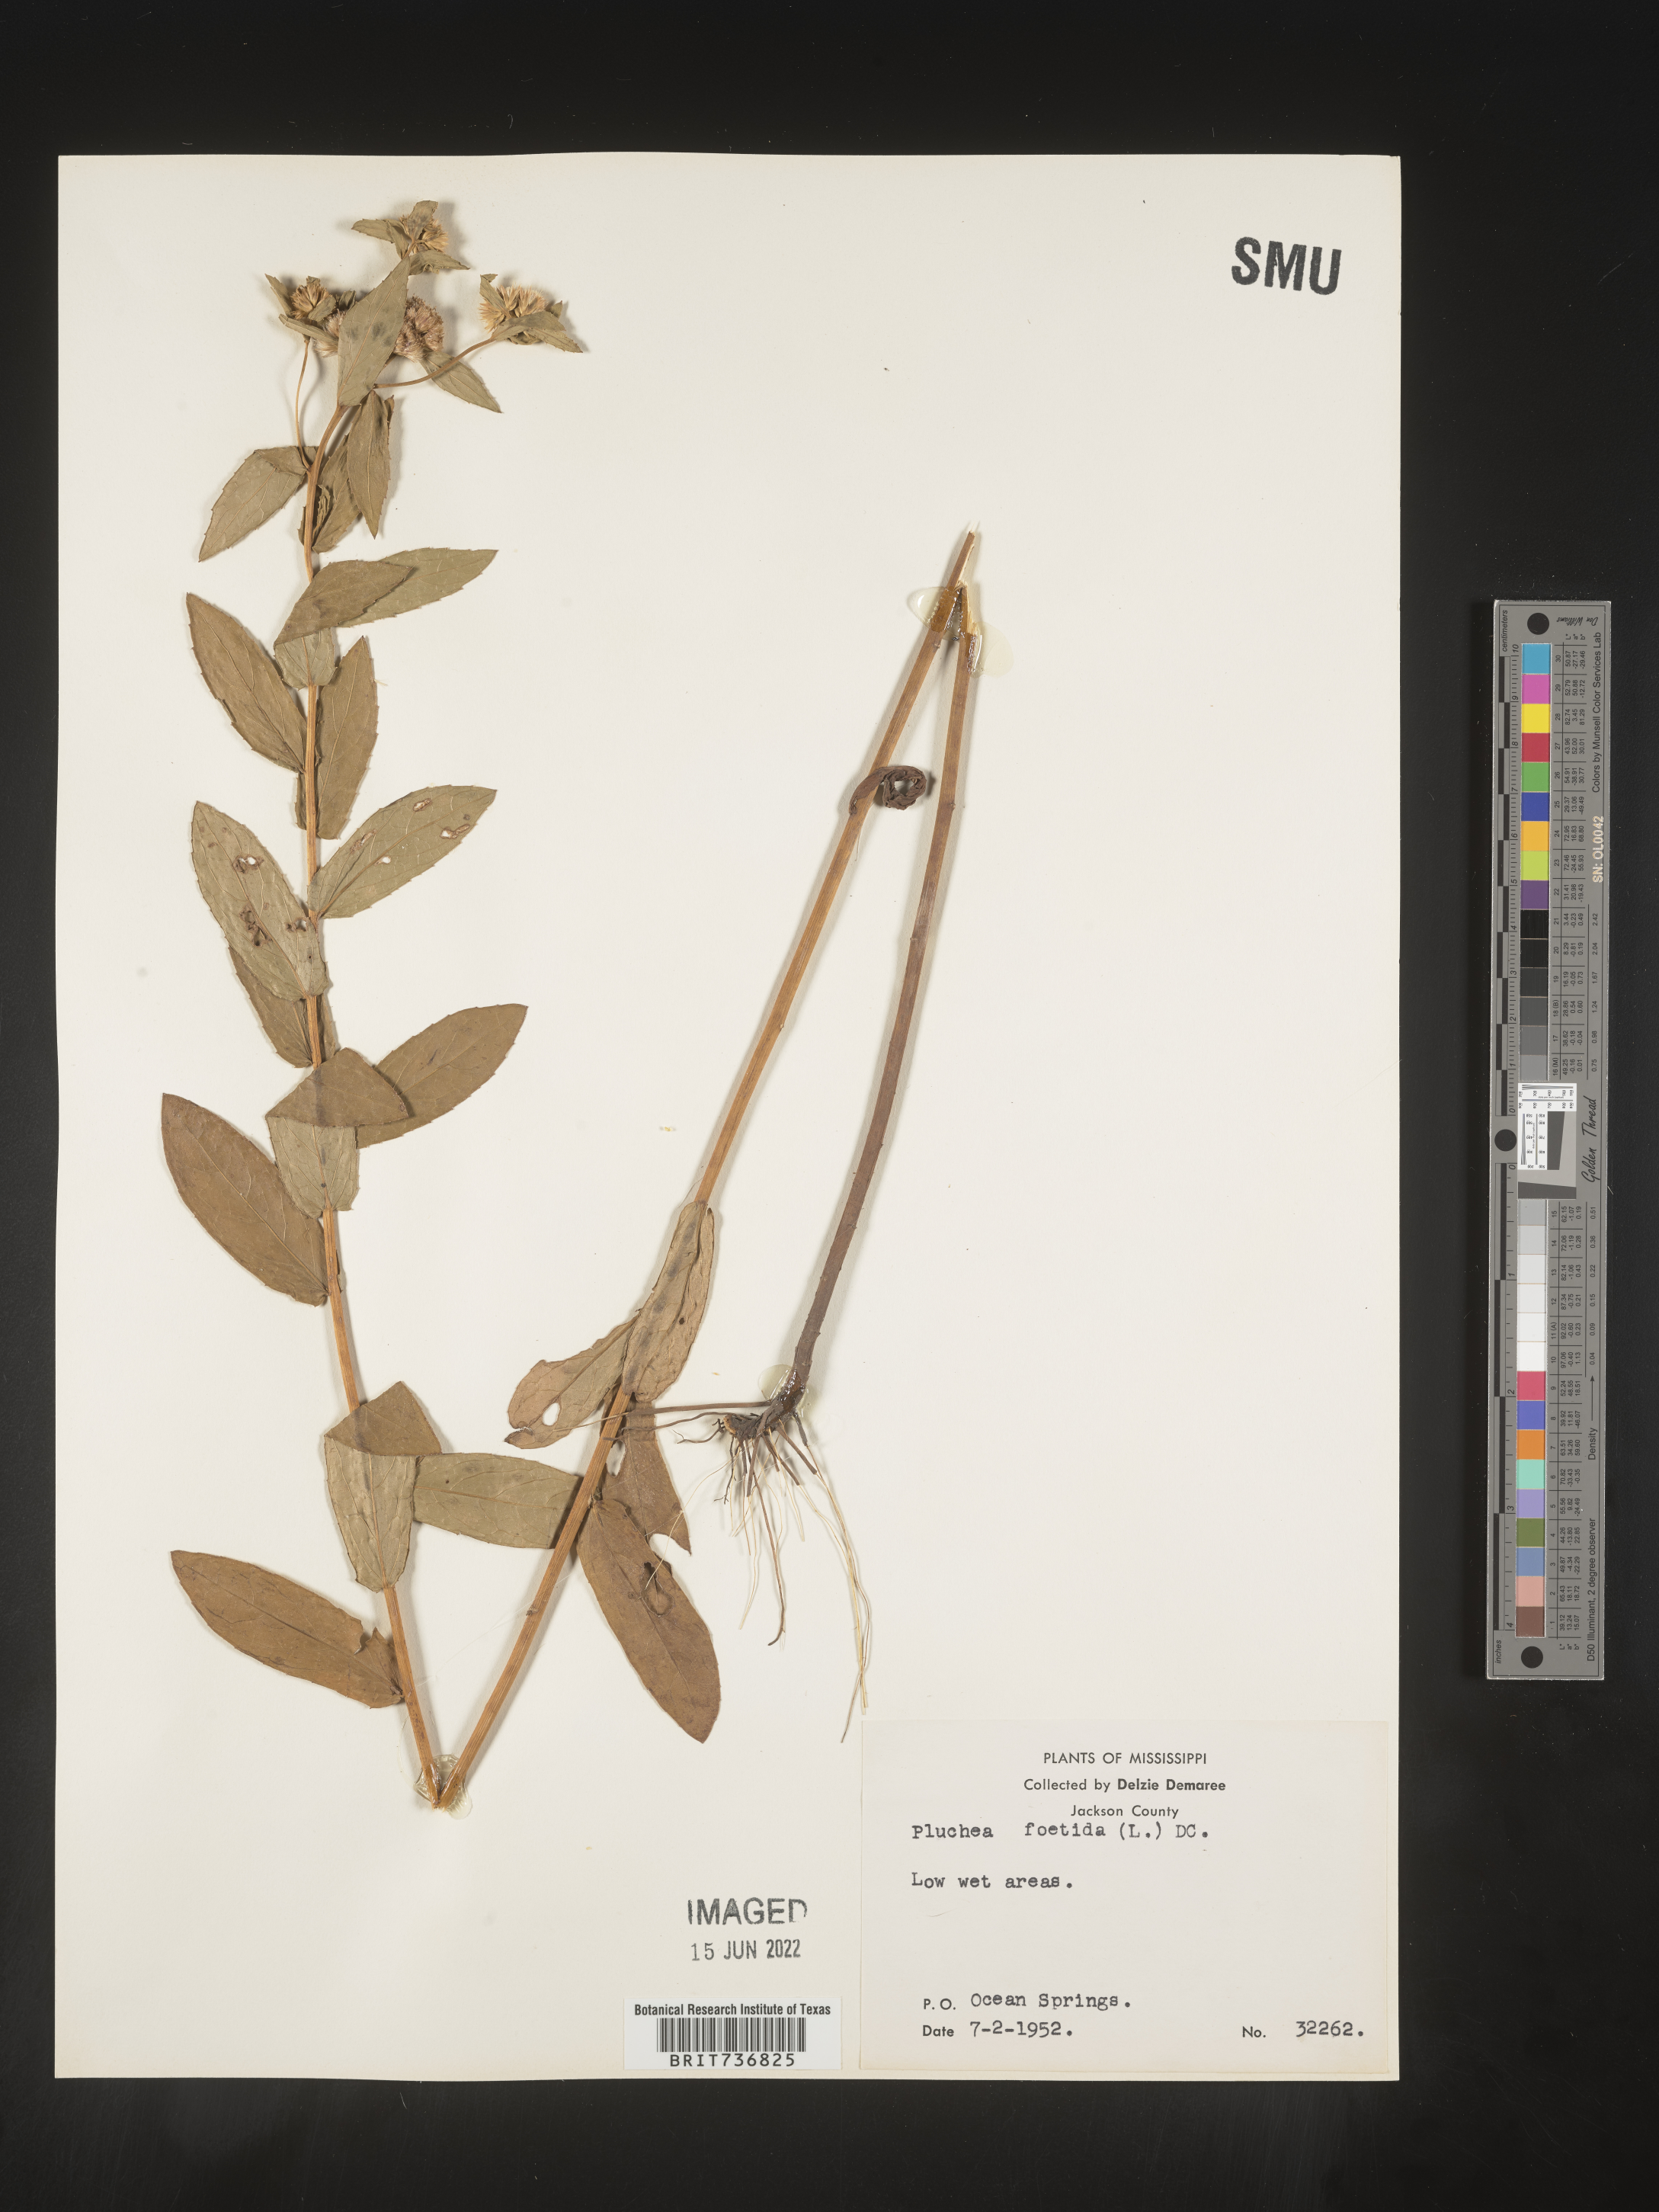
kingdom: Plantae
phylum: Tracheophyta
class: Magnoliopsida
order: Asterales
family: Asteraceae
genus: Pluchea
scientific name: Pluchea foetida
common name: Stinking camphorweed
